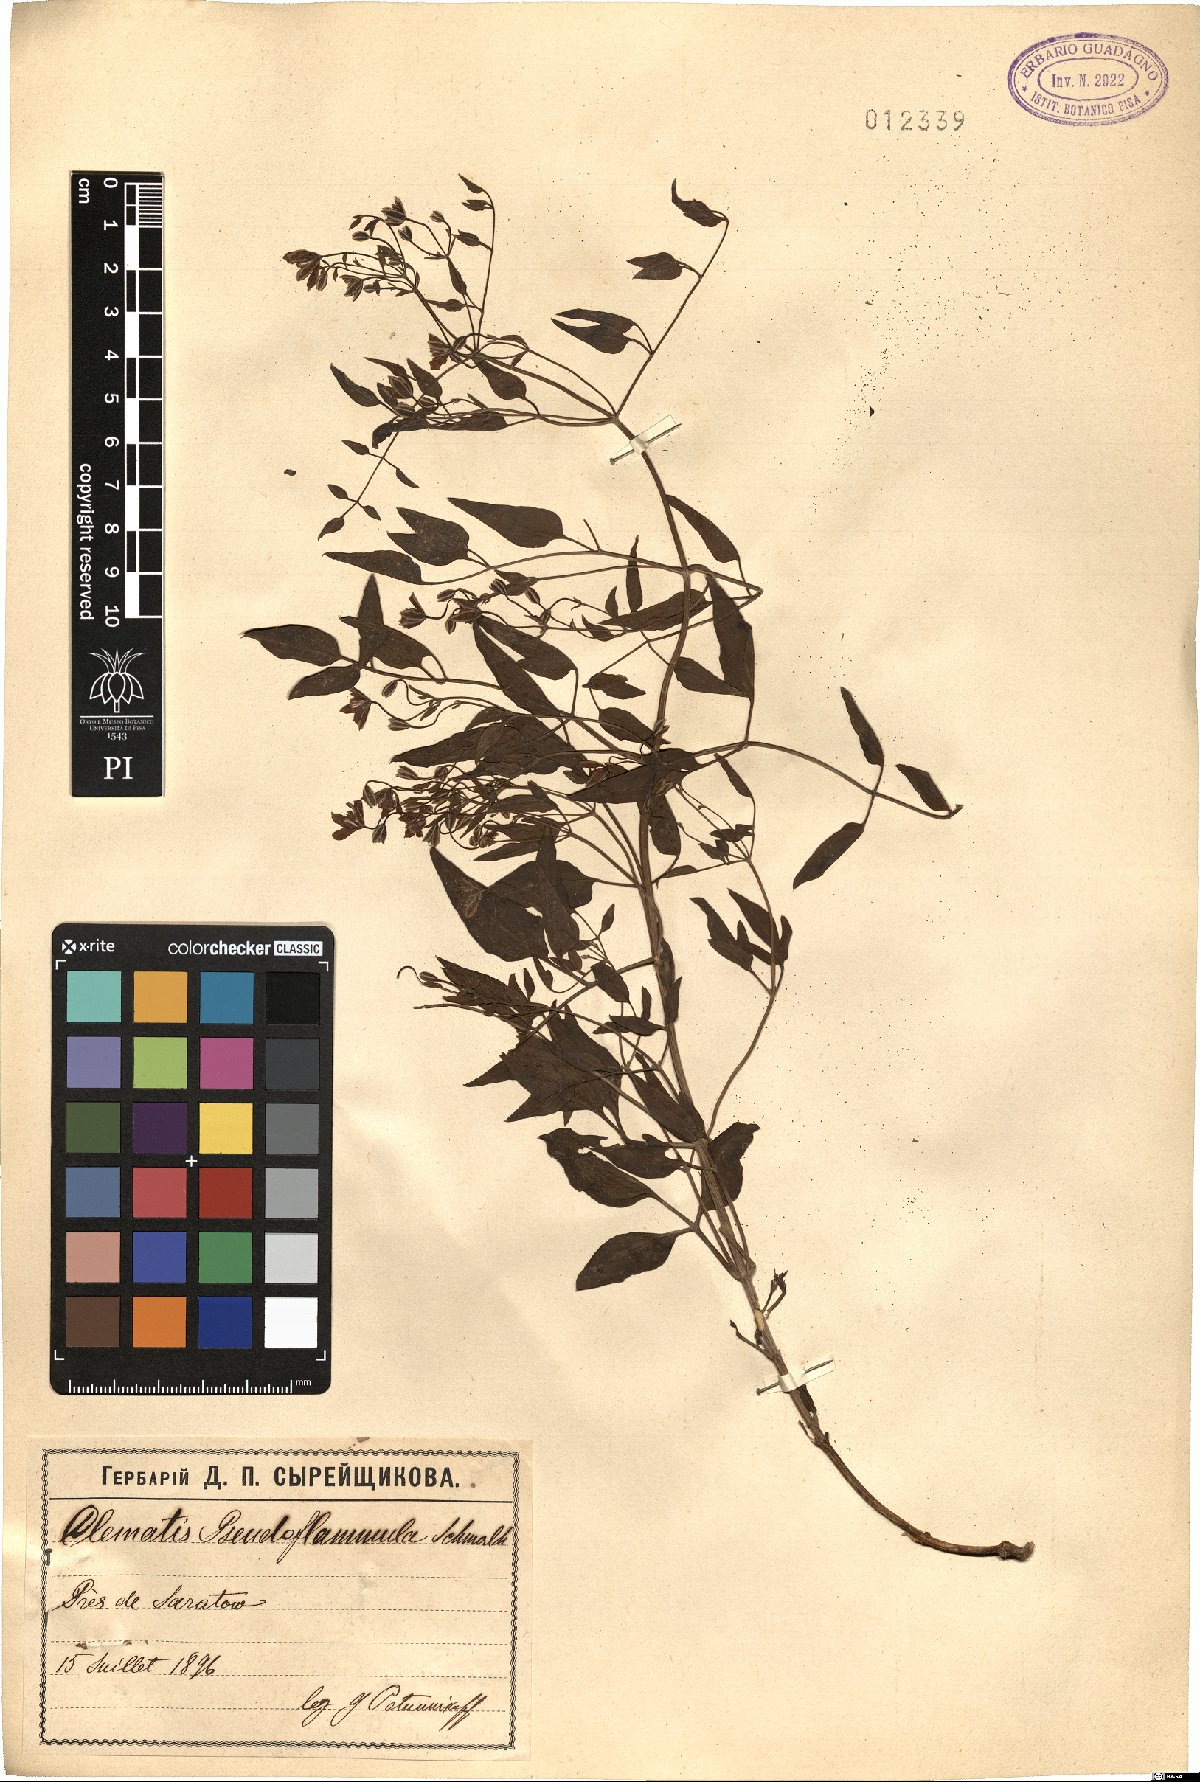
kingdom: Plantae
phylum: Tracheophyta
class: Magnoliopsida
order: Ranunculales
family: Ranunculaceae
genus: Clematis
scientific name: Clematis lathyrifolia
